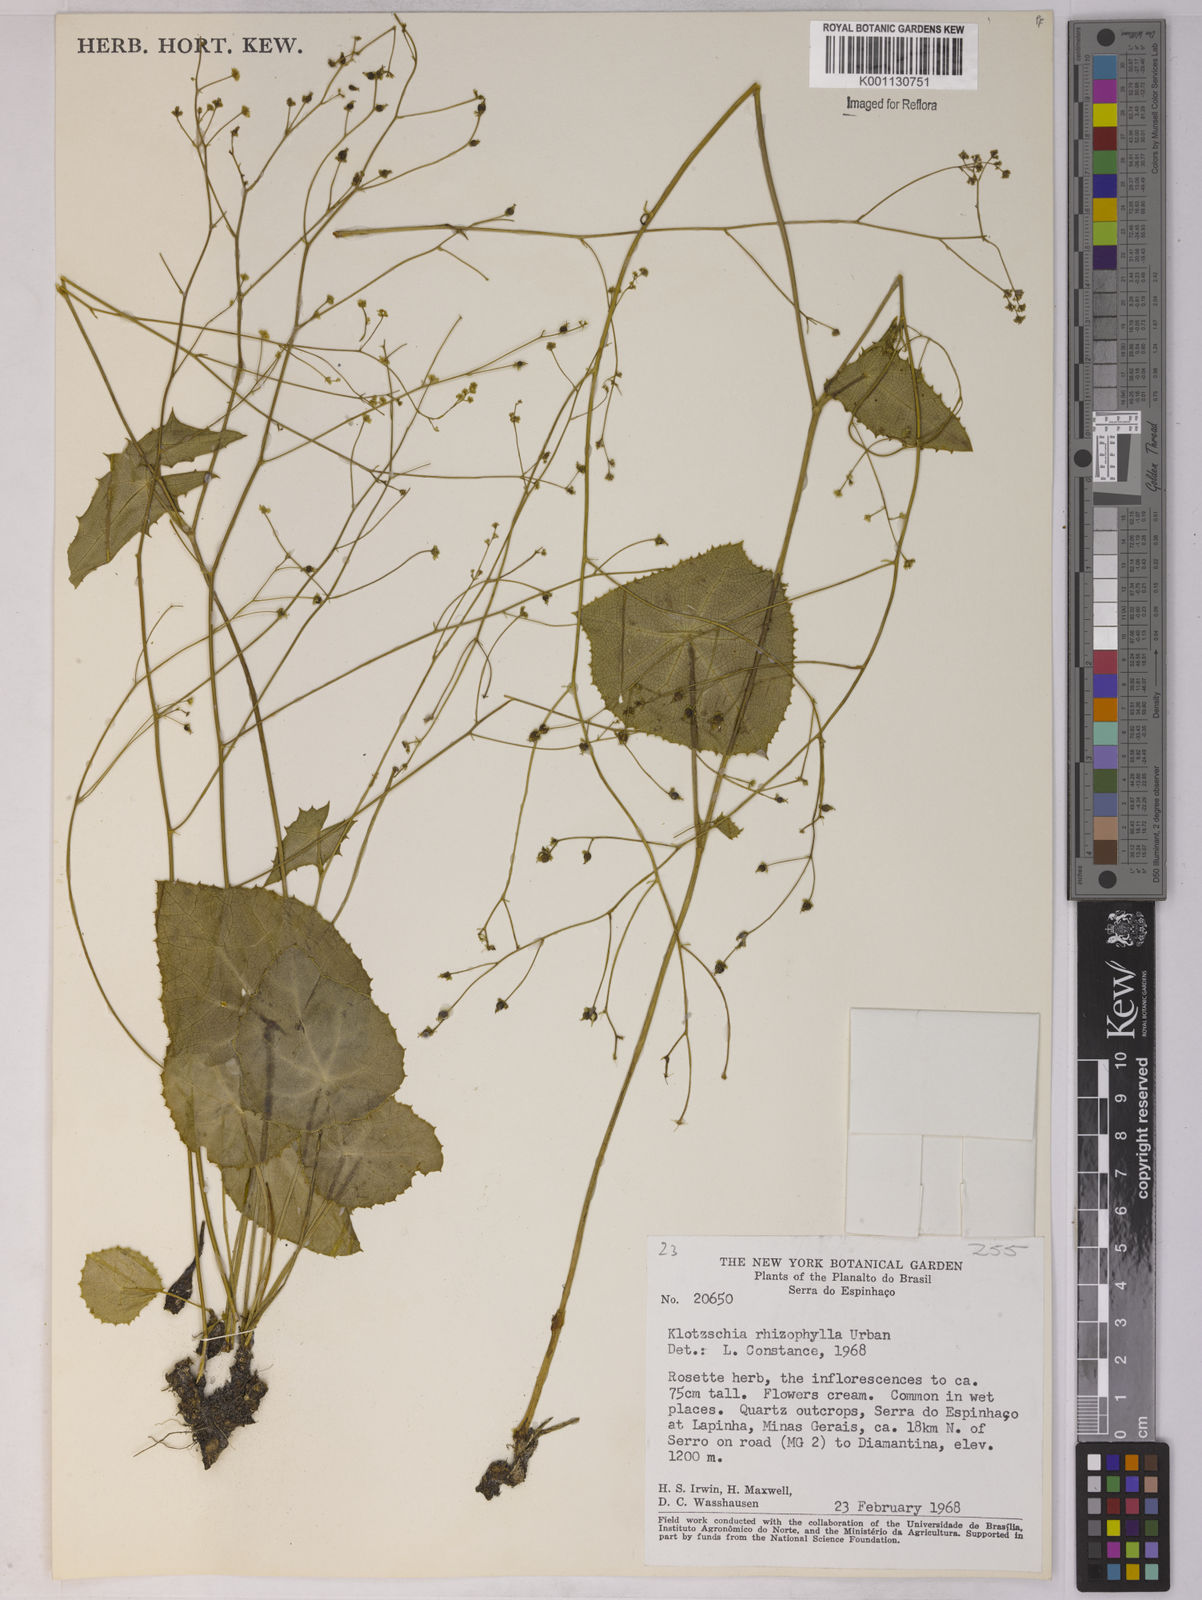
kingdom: Plantae
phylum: Tracheophyta
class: Magnoliopsida
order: Apiales
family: Apiaceae
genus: Klotzschia
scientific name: Klotzschia brasiliensis
